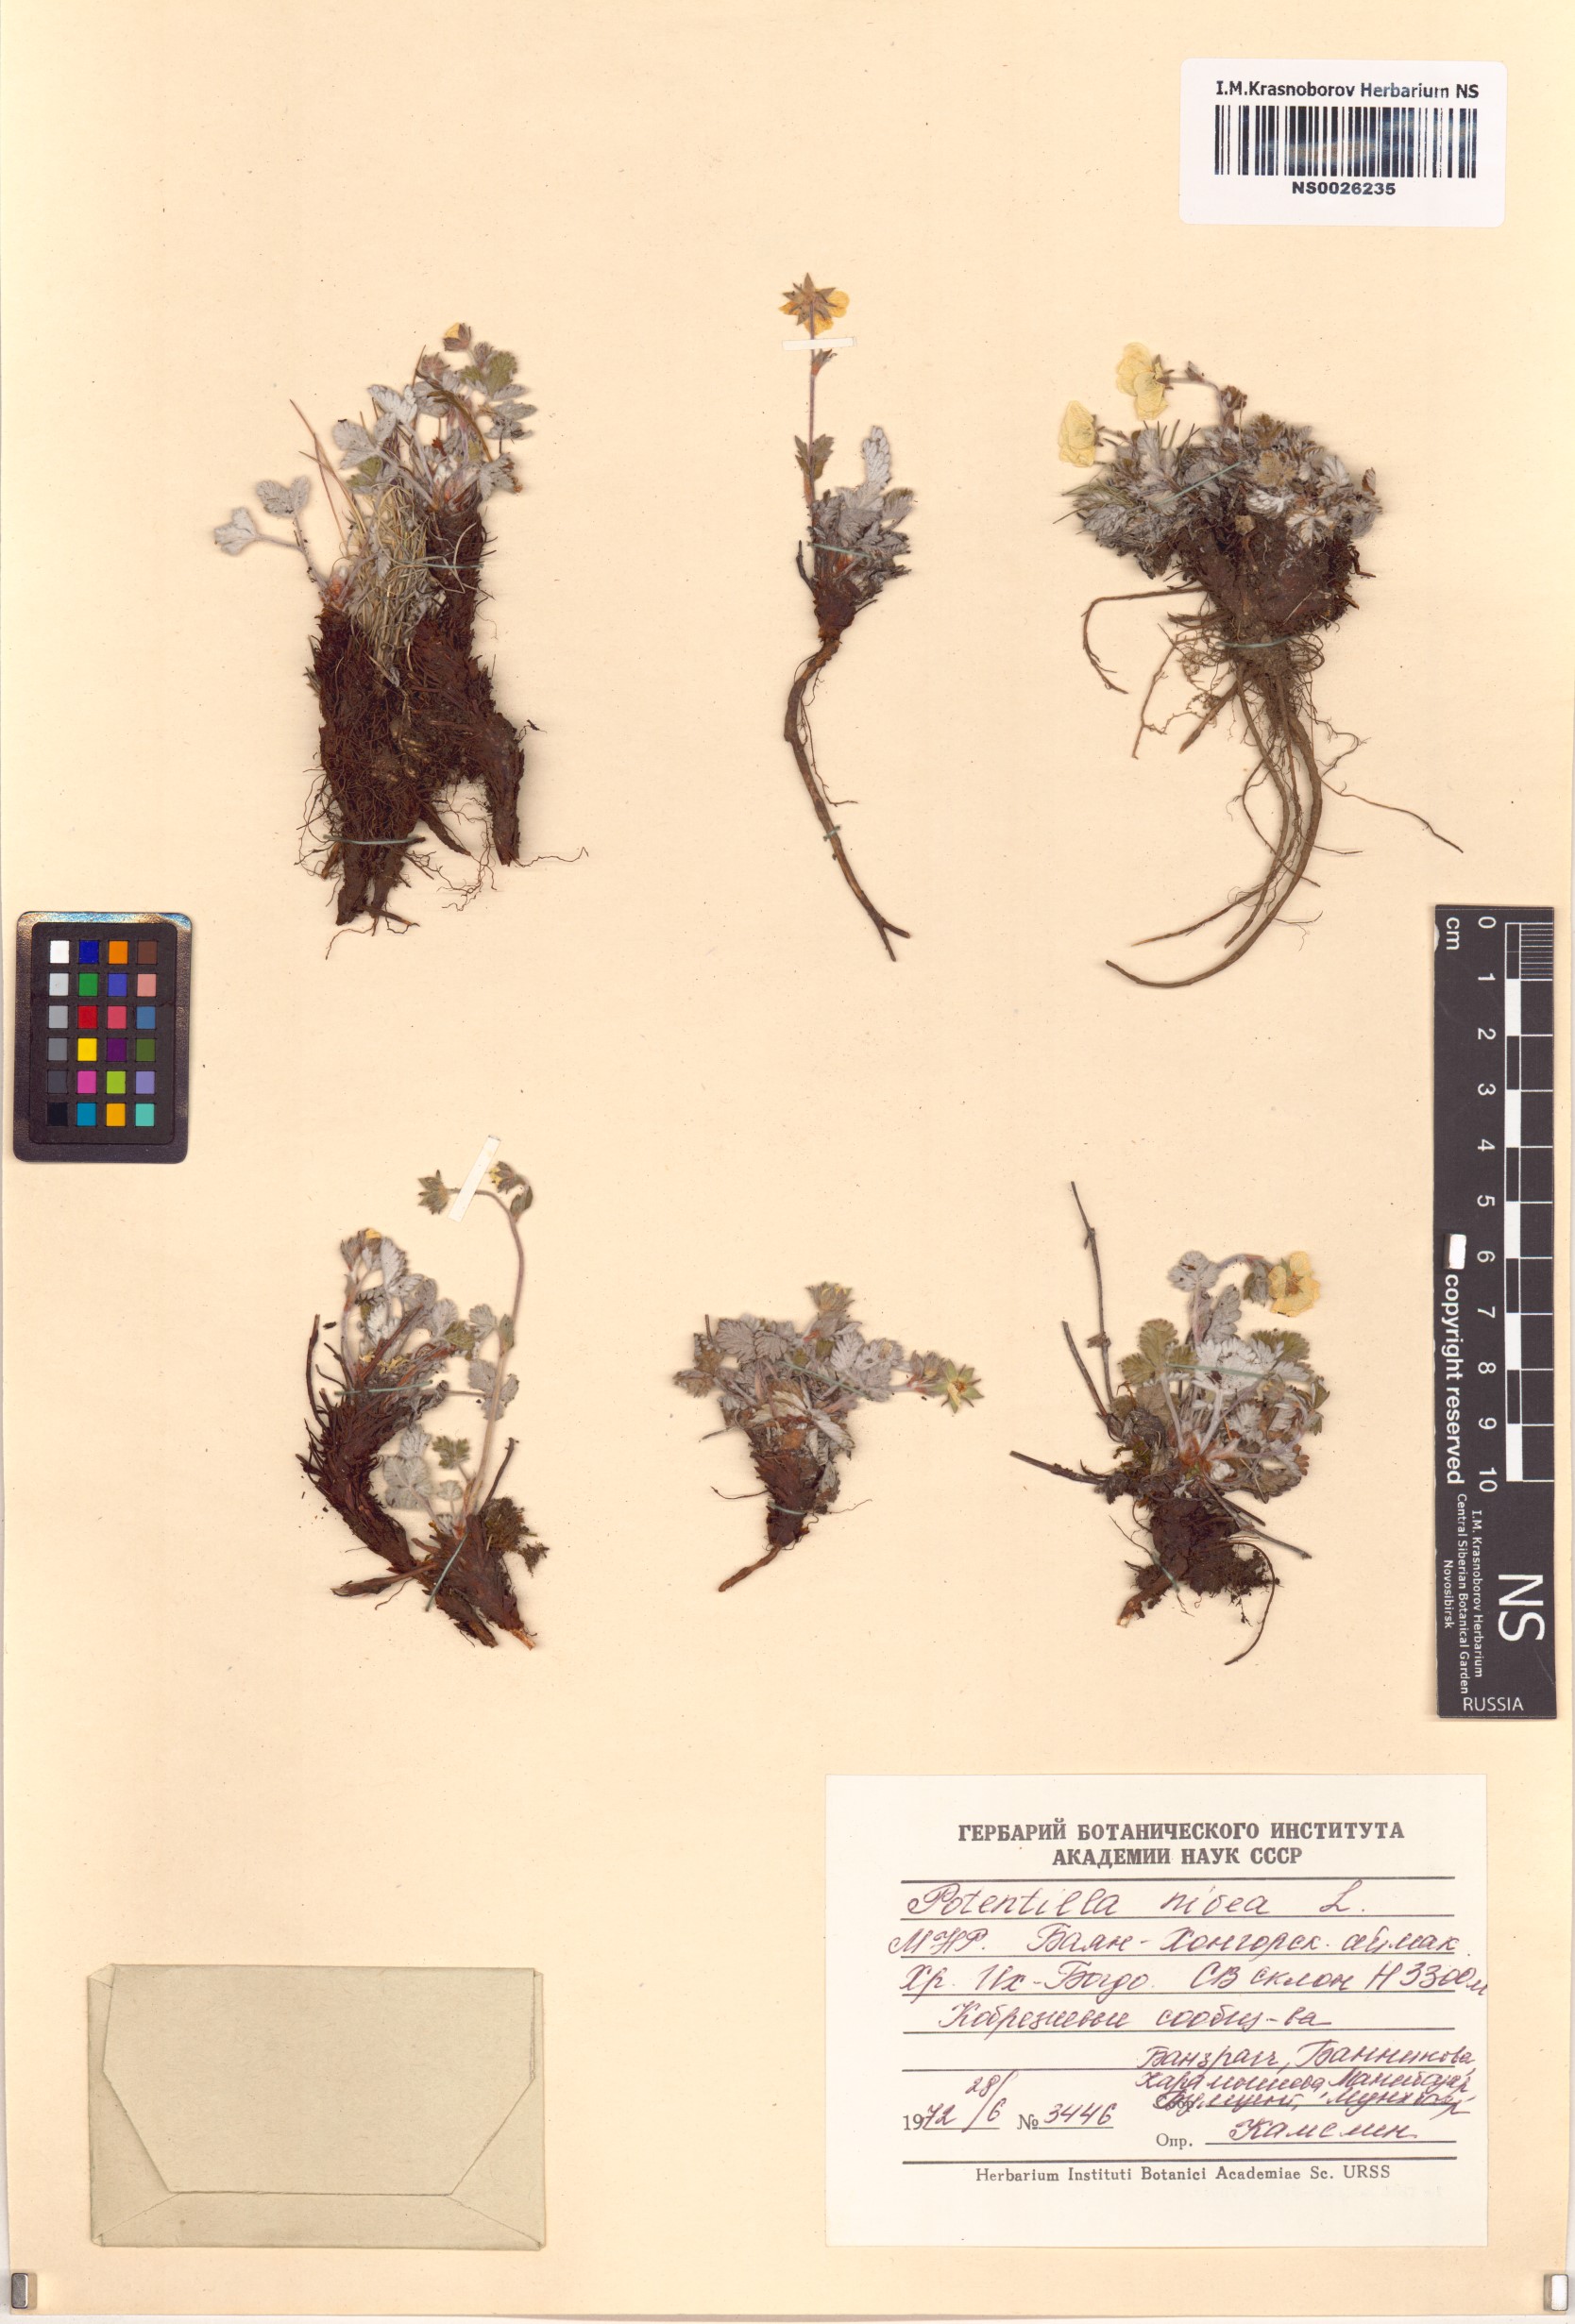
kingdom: Plantae
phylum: Tracheophyta
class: Magnoliopsida
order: Rosales
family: Rosaceae
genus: Potentilla
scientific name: Potentilla nivea
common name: Snow cinquefoil
